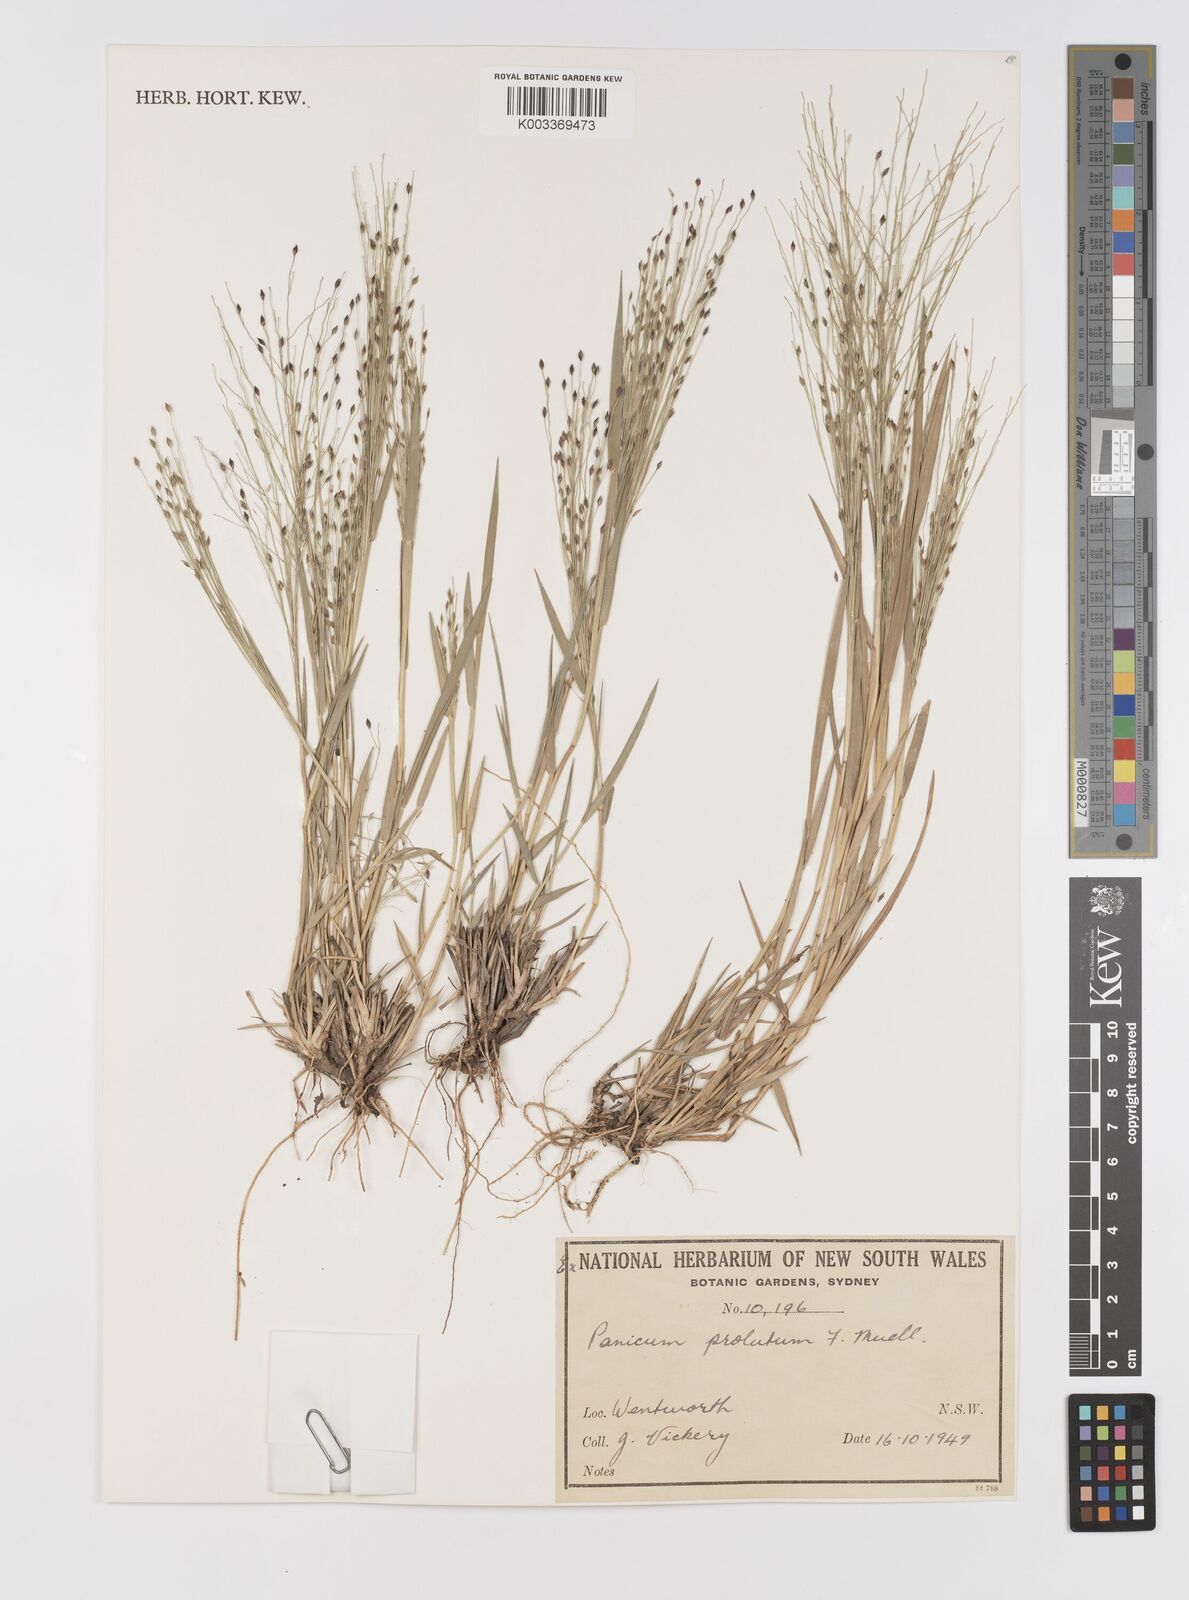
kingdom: Plantae
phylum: Tracheophyta
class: Liliopsida
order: Poales
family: Poaceae
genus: Walwhalleya
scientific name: Walwhalleya proluta
